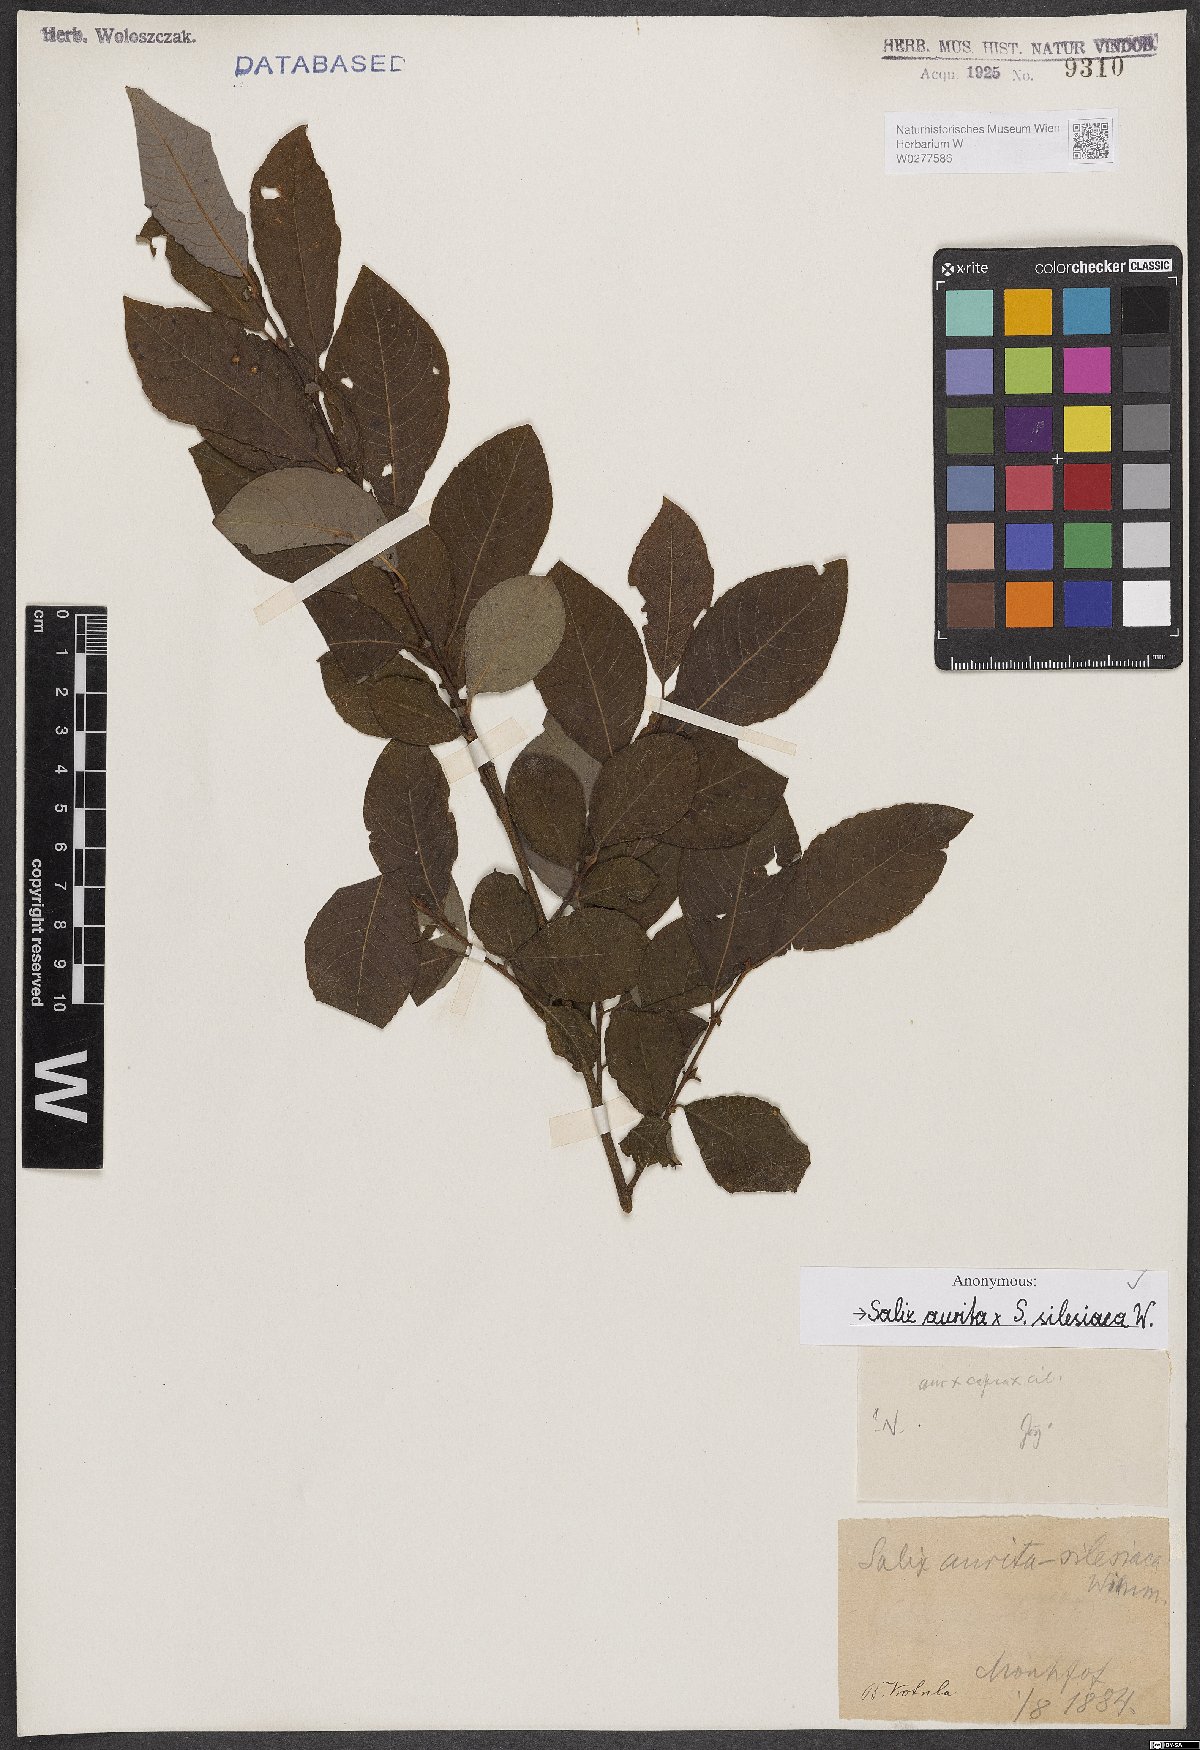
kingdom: Plantae
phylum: Tracheophyta
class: Magnoliopsida
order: Malpighiales
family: Salicaceae
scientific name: Salicaceae
